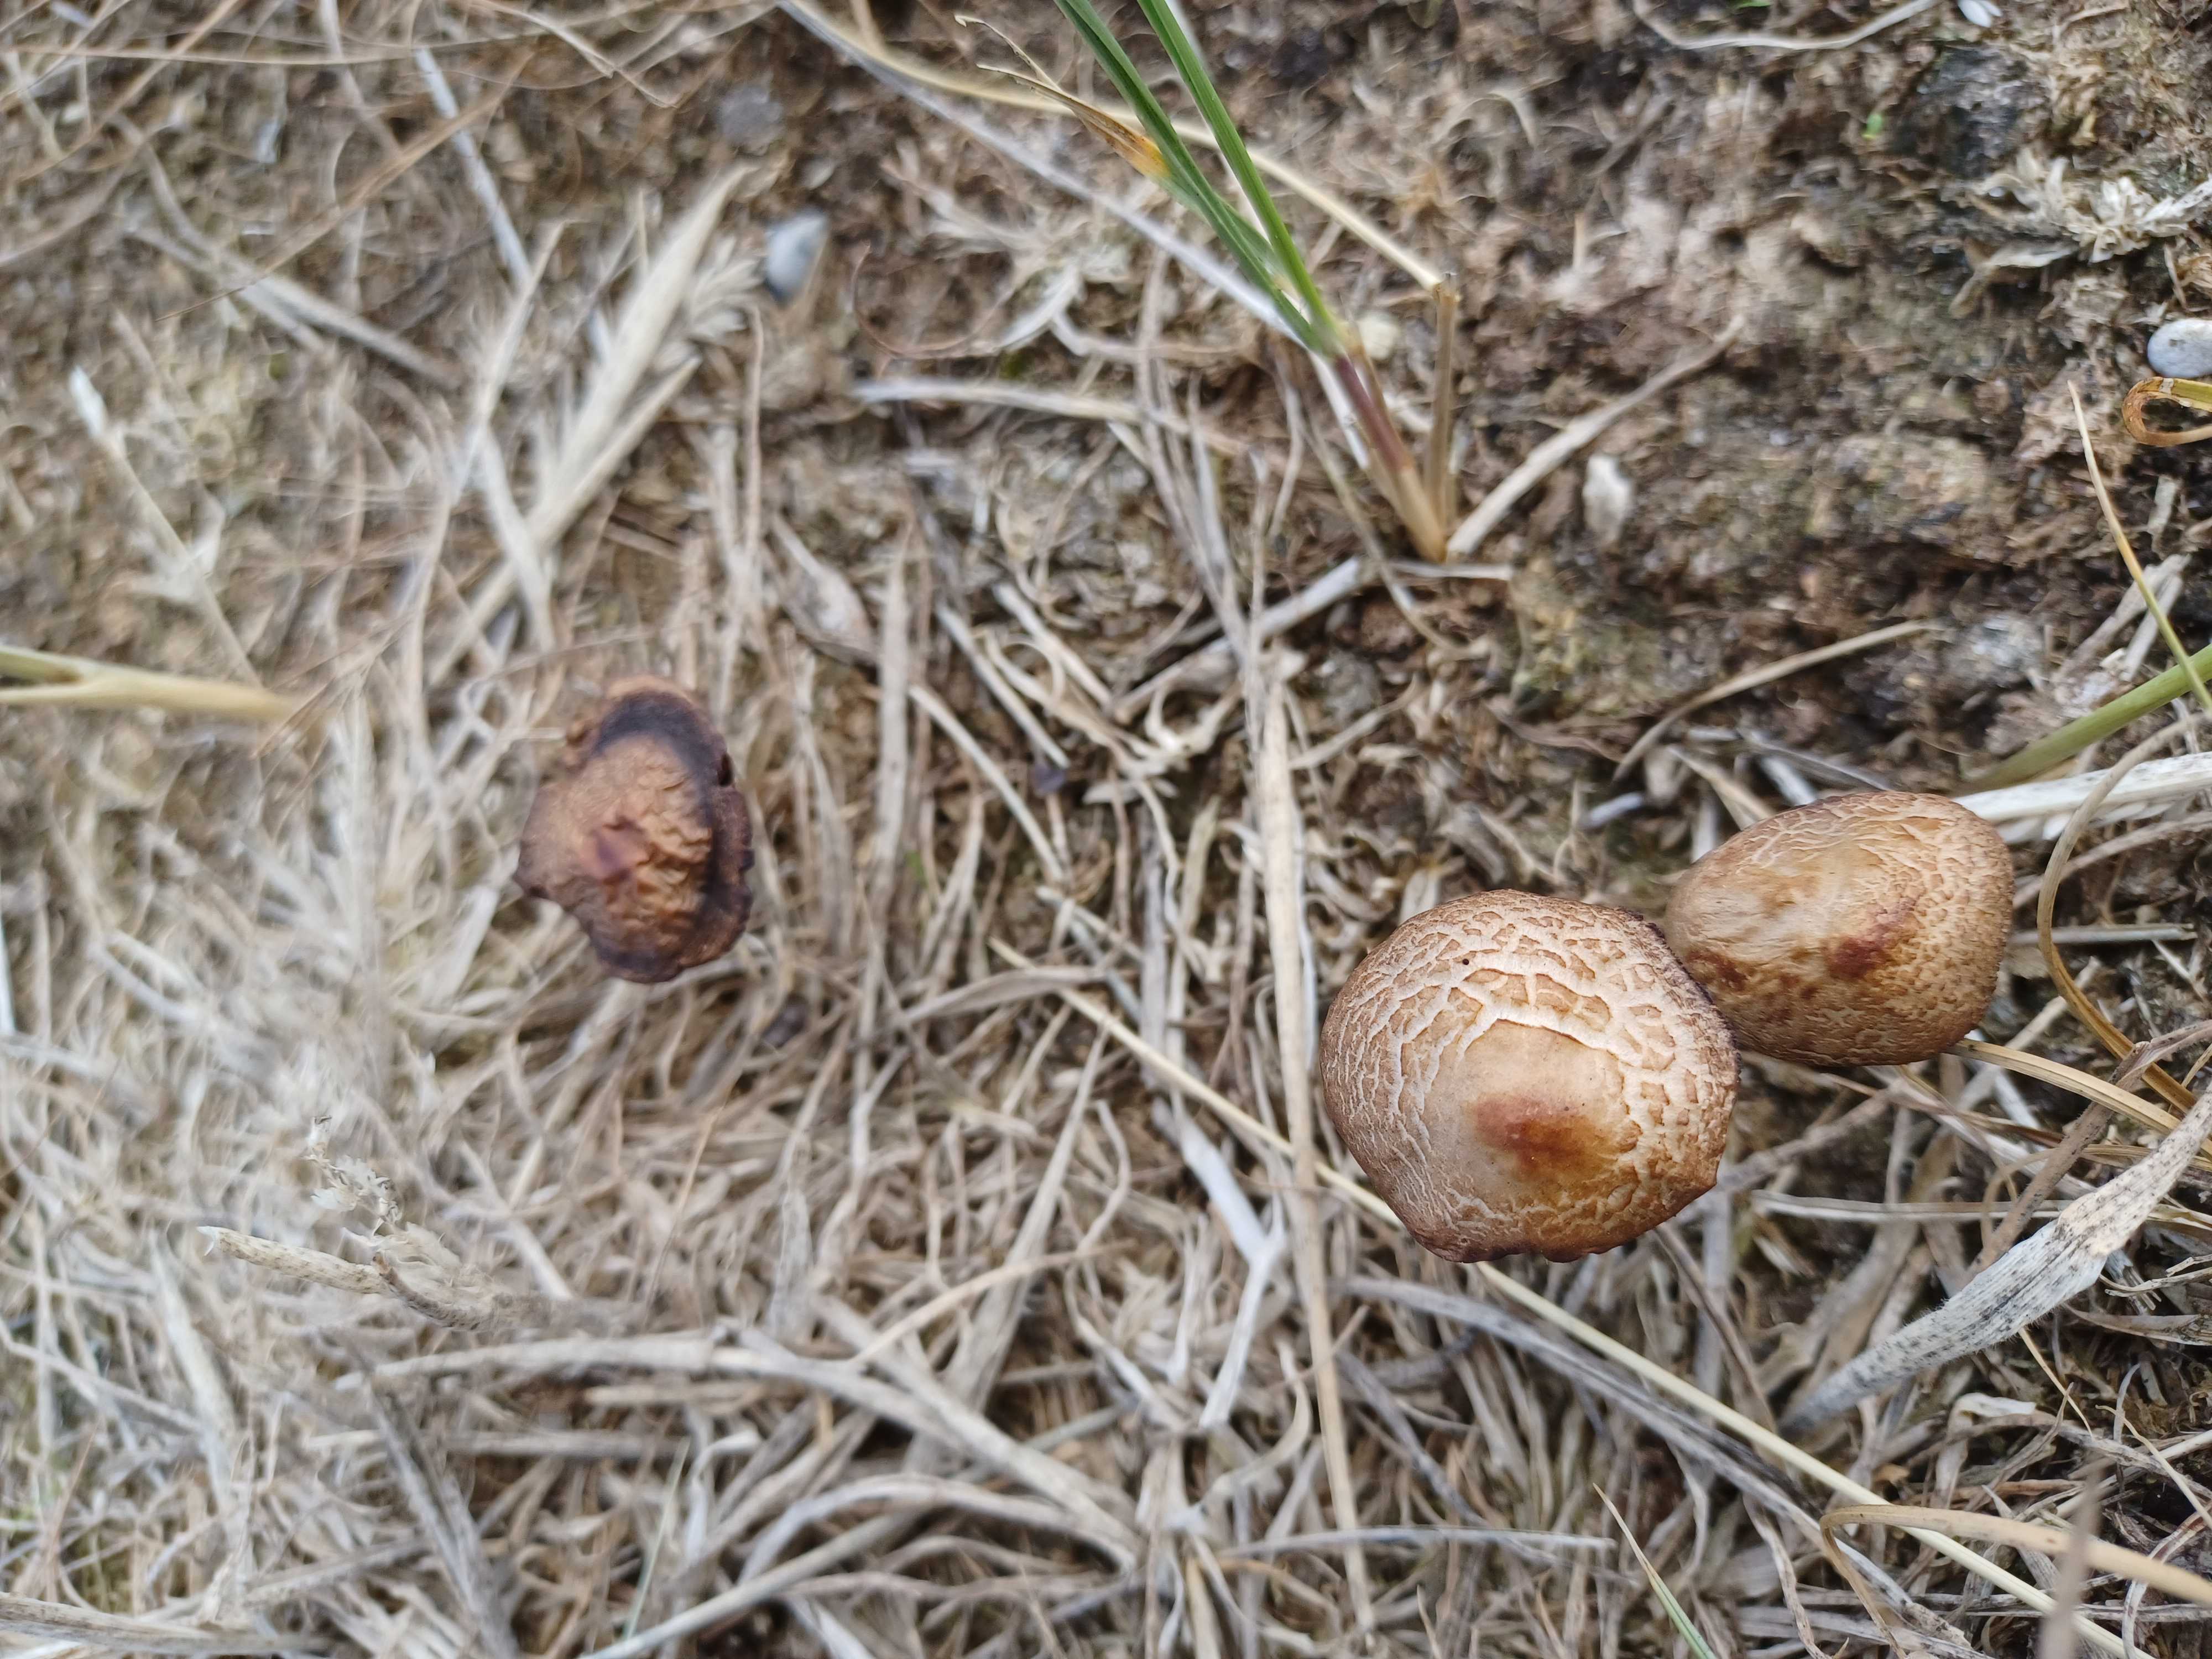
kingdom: Fungi
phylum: Basidiomycota
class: Agaricomycetes
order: Agaricales
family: Bolbitiaceae
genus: Panaeolus
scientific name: Panaeolus
